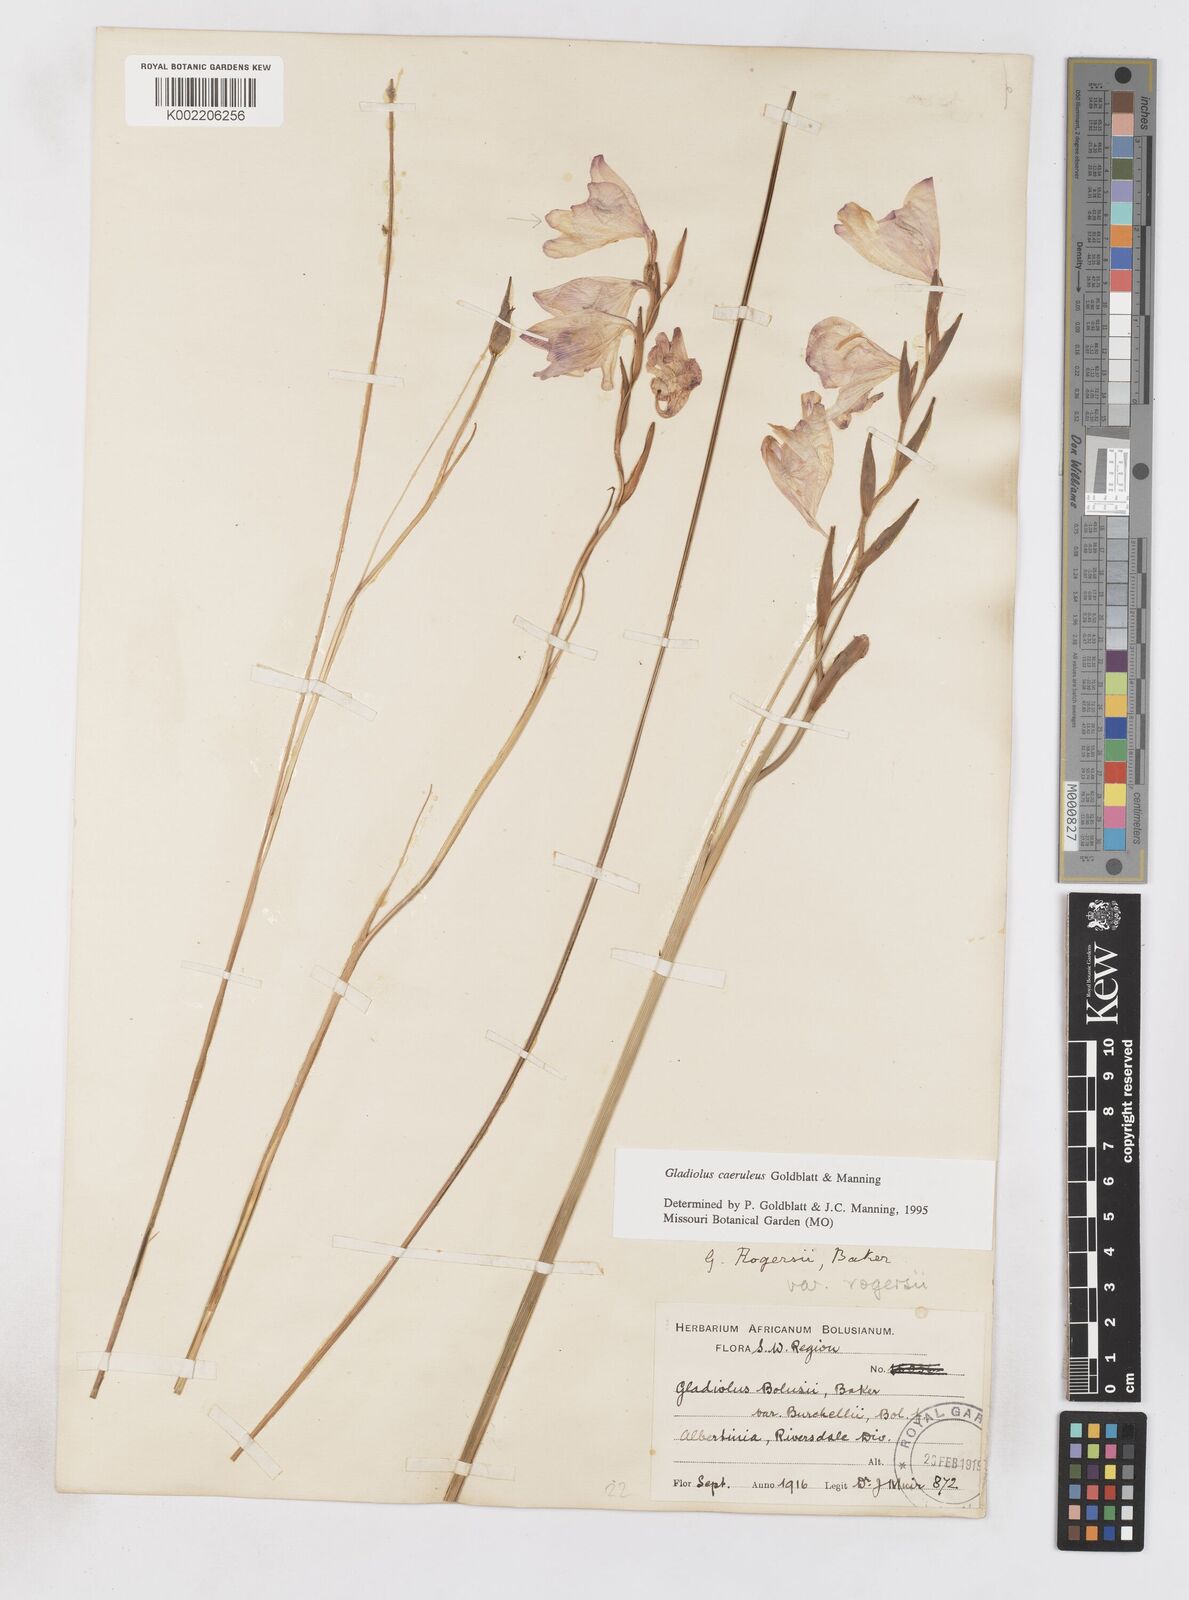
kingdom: Plantae
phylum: Tracheophyta
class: Liliopsida
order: Asparagales
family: Iridaceae
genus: Gladiolus
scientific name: Gladiolus caeruleus
